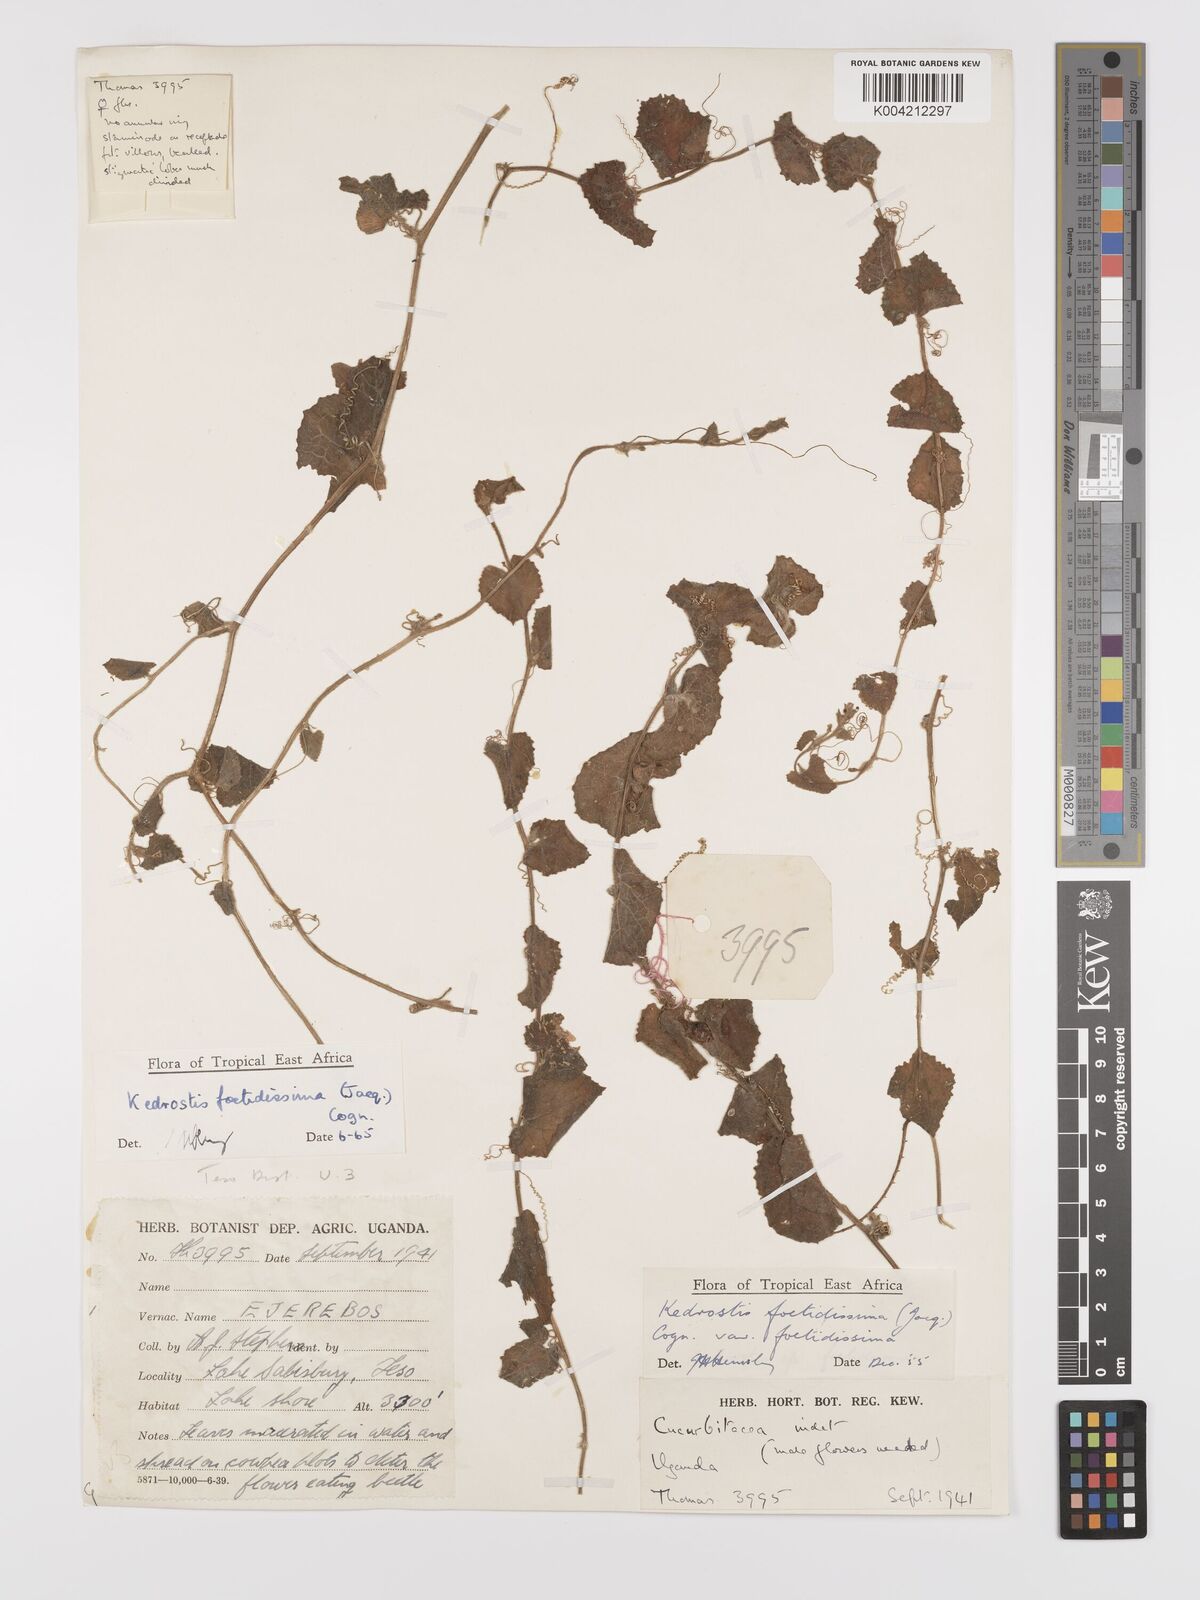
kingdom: Plantae
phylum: Tracheophyta
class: Magnoliopsida
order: Cucurbitales
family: Cucurbitaceae
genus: Kedrostis
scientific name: Kedrostis foetidissima
